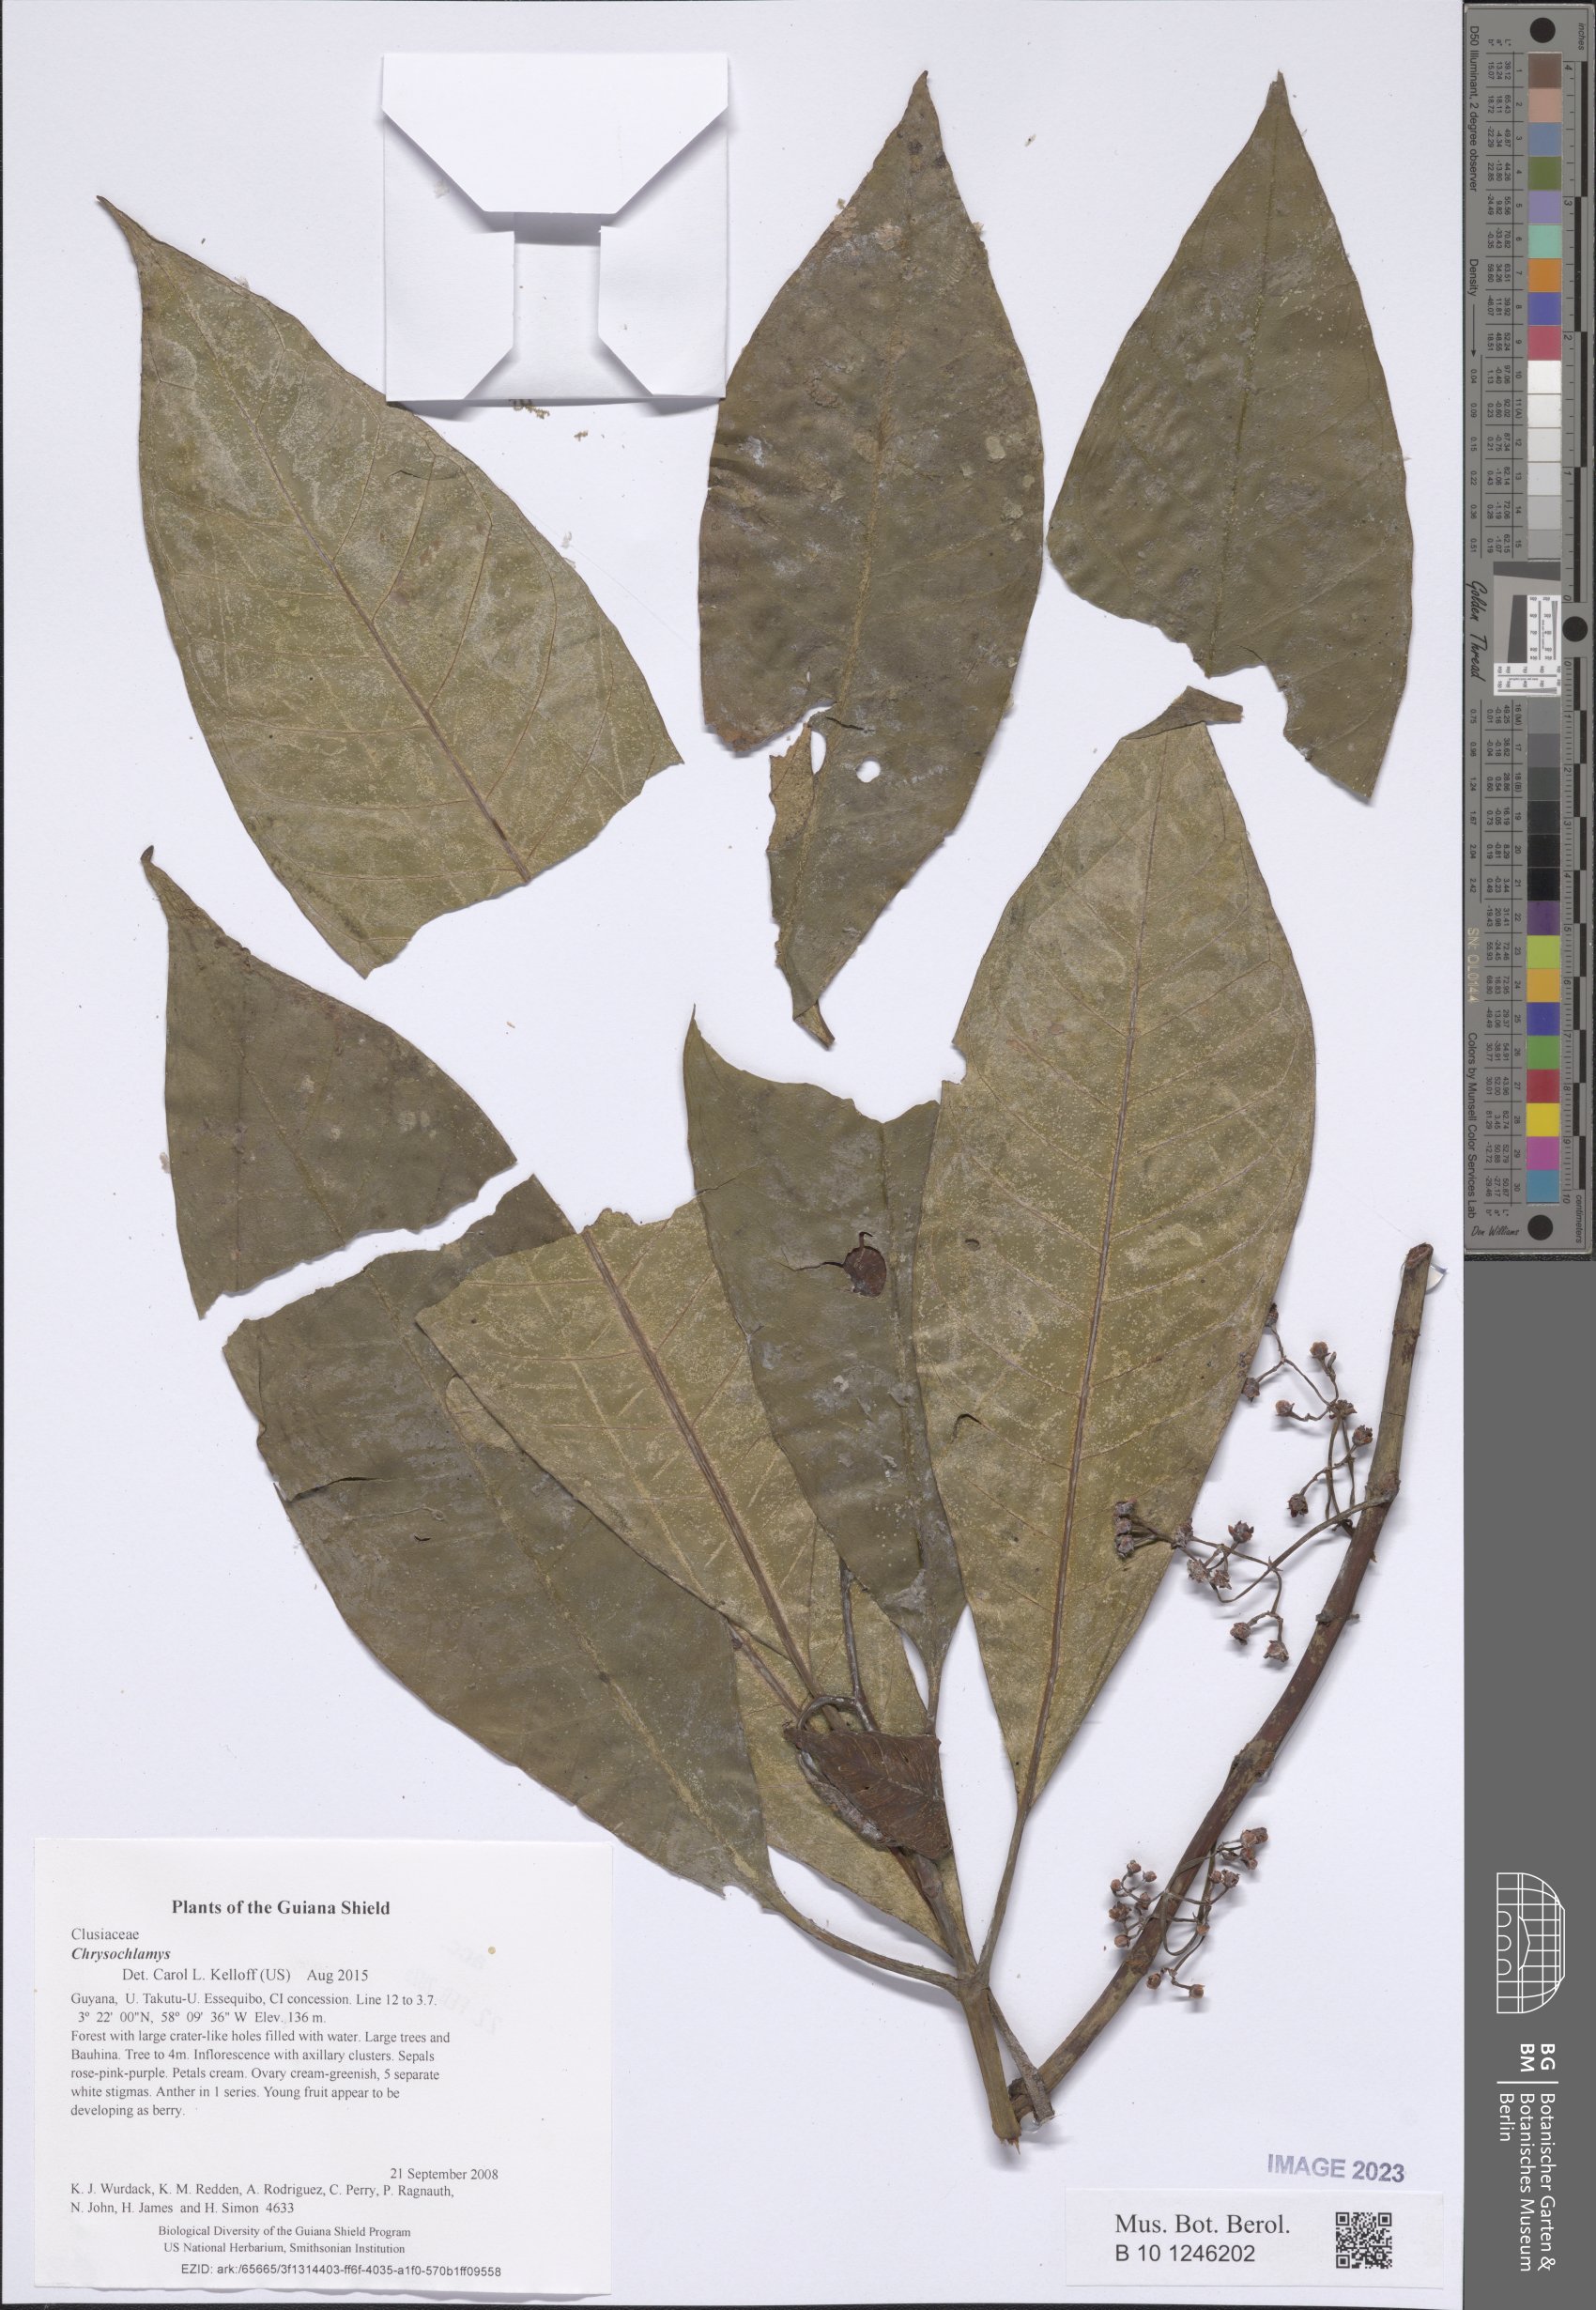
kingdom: Plantae
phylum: Tracheophyta
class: Magnoliopsida
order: Malpighiales
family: Clusiaceae
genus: Chrysochlamys
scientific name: Chrysochlamys
